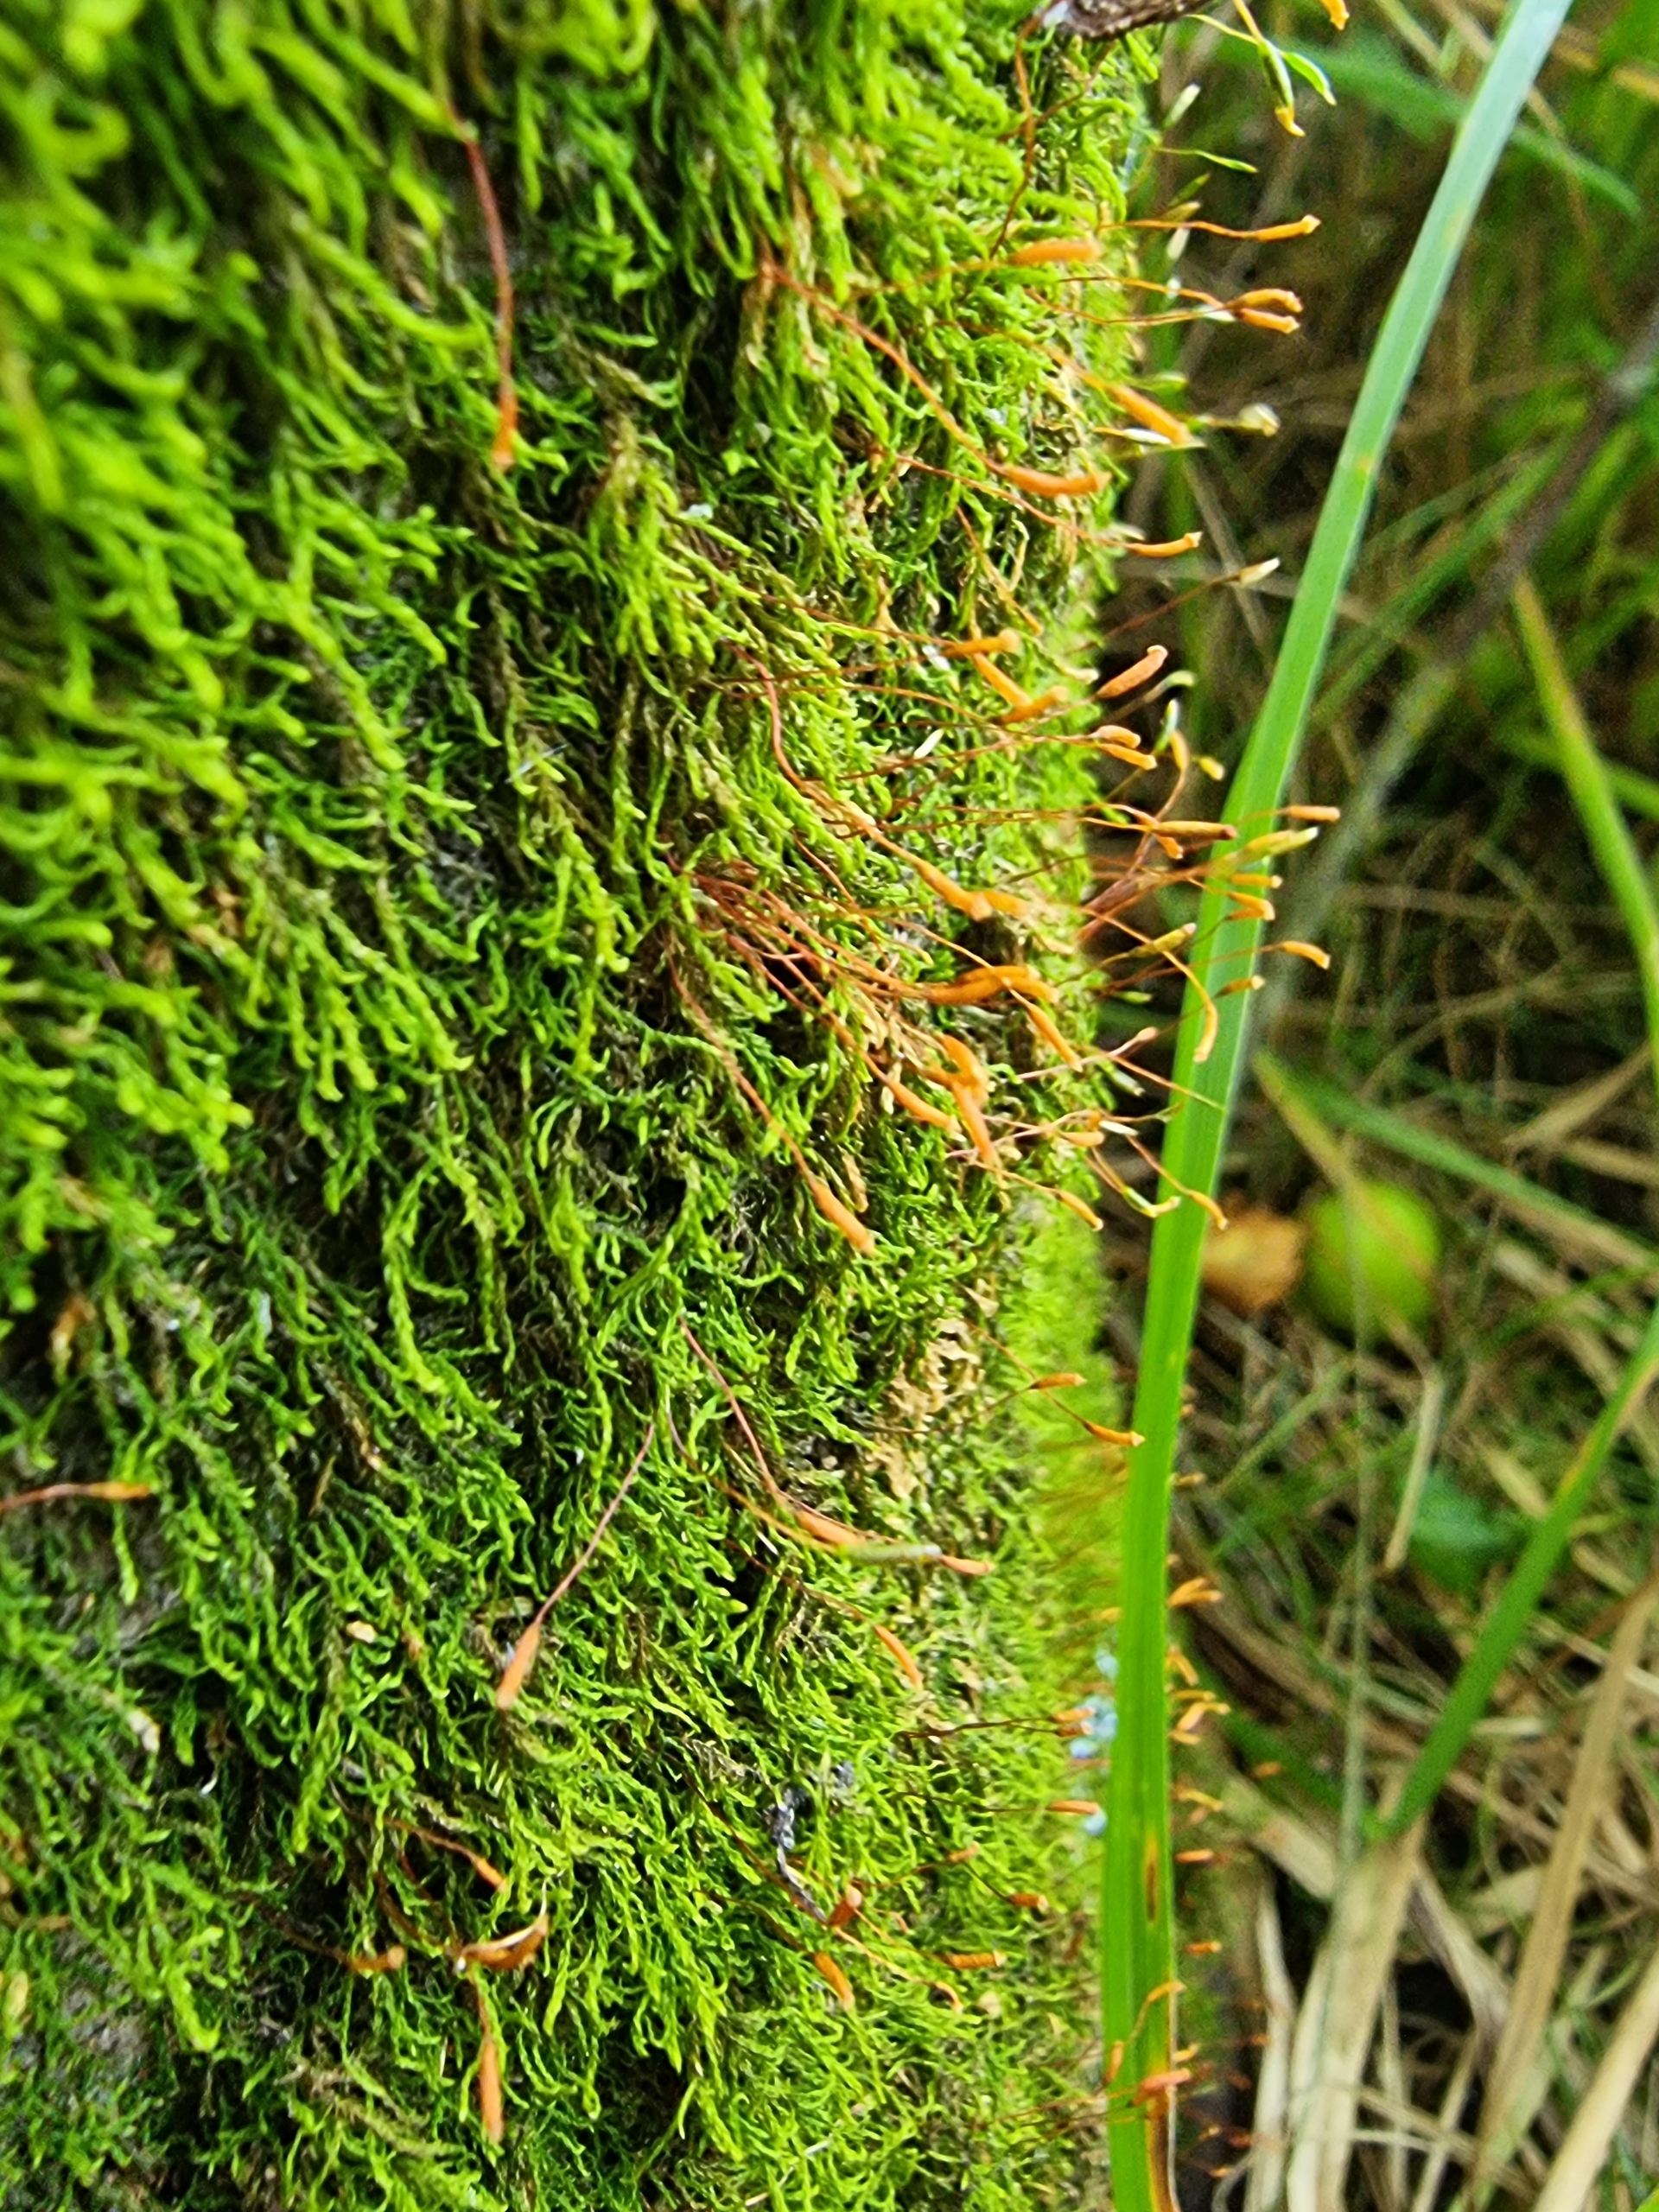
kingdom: Plantae
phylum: Bryophyta
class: Bryopsida
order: Hypnales
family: Leskeaceae
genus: Leskea
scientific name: Leskea polycarpa
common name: Mat lærkemos
